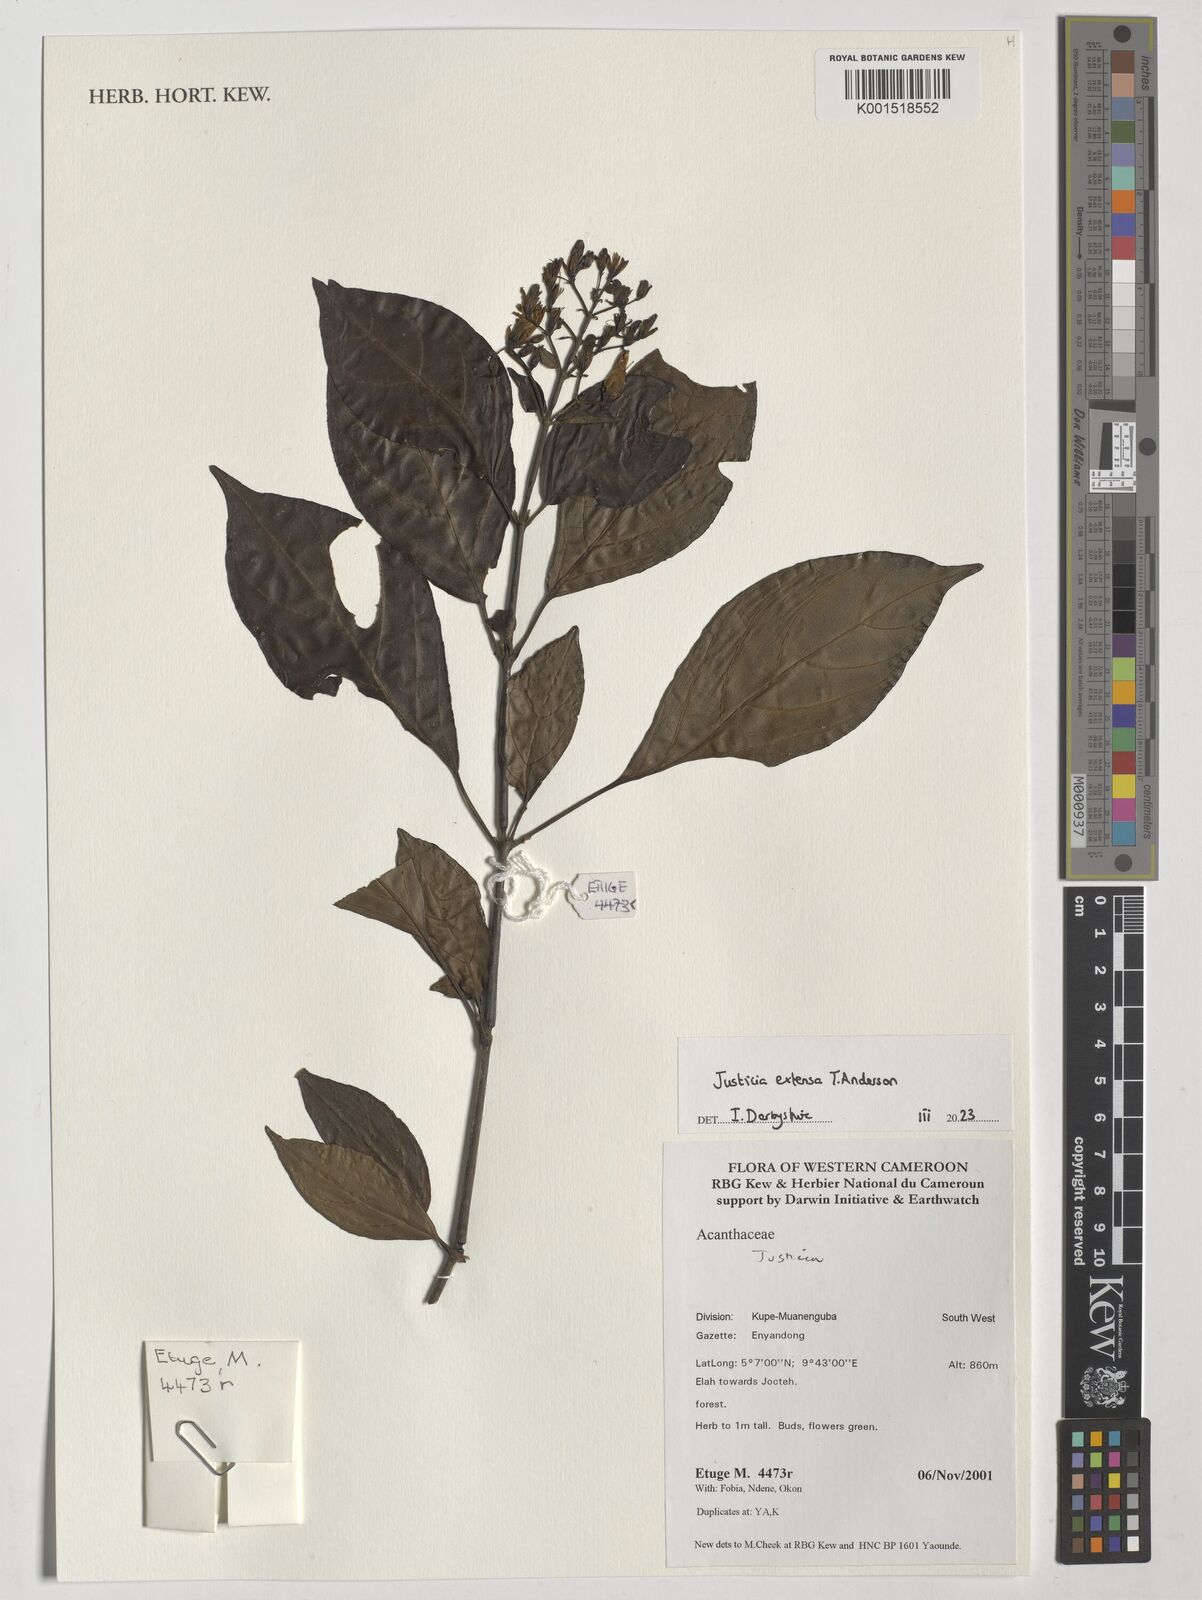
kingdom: Plantae
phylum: Tracheophyta
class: Magnoliopsida
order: Lamiales
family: Acanthaceae
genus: Justicia
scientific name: Justicia extensa
